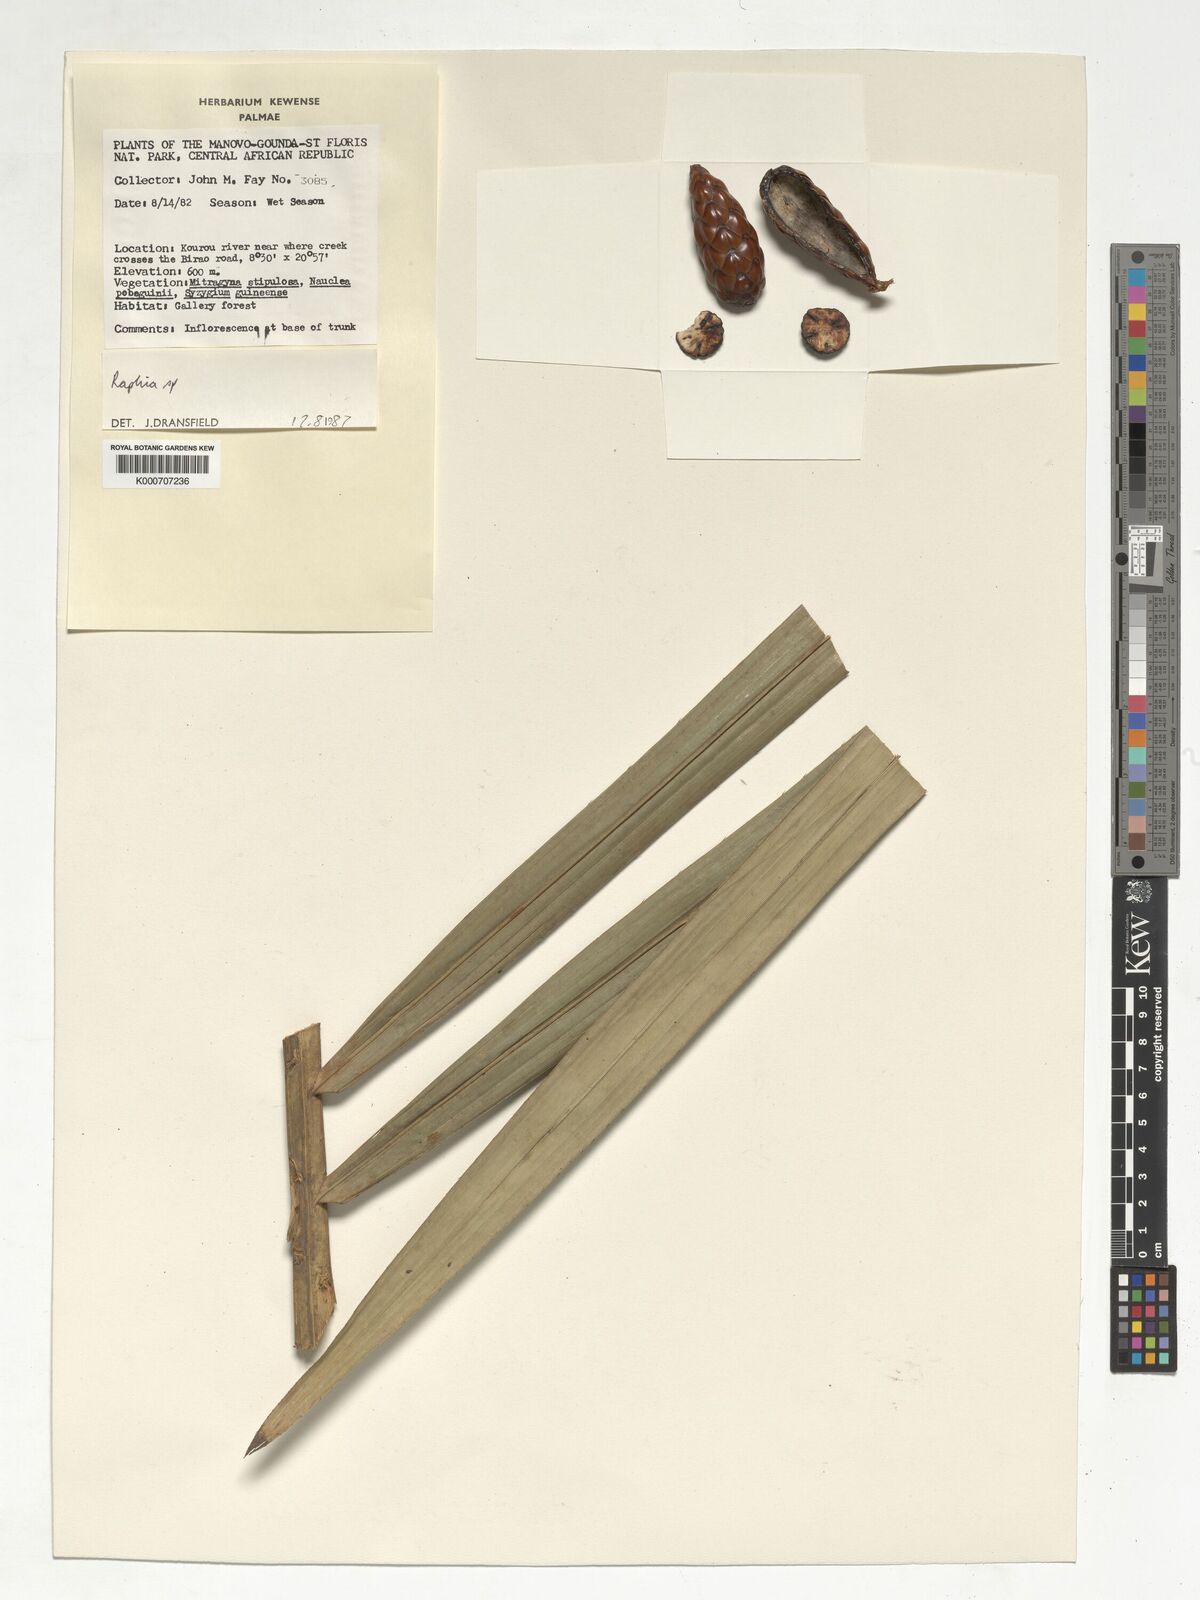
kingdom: Plantae
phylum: Tracheophyta
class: Liliopsida
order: Arecales
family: Arecaceae
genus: Raphia
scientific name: Raphia
